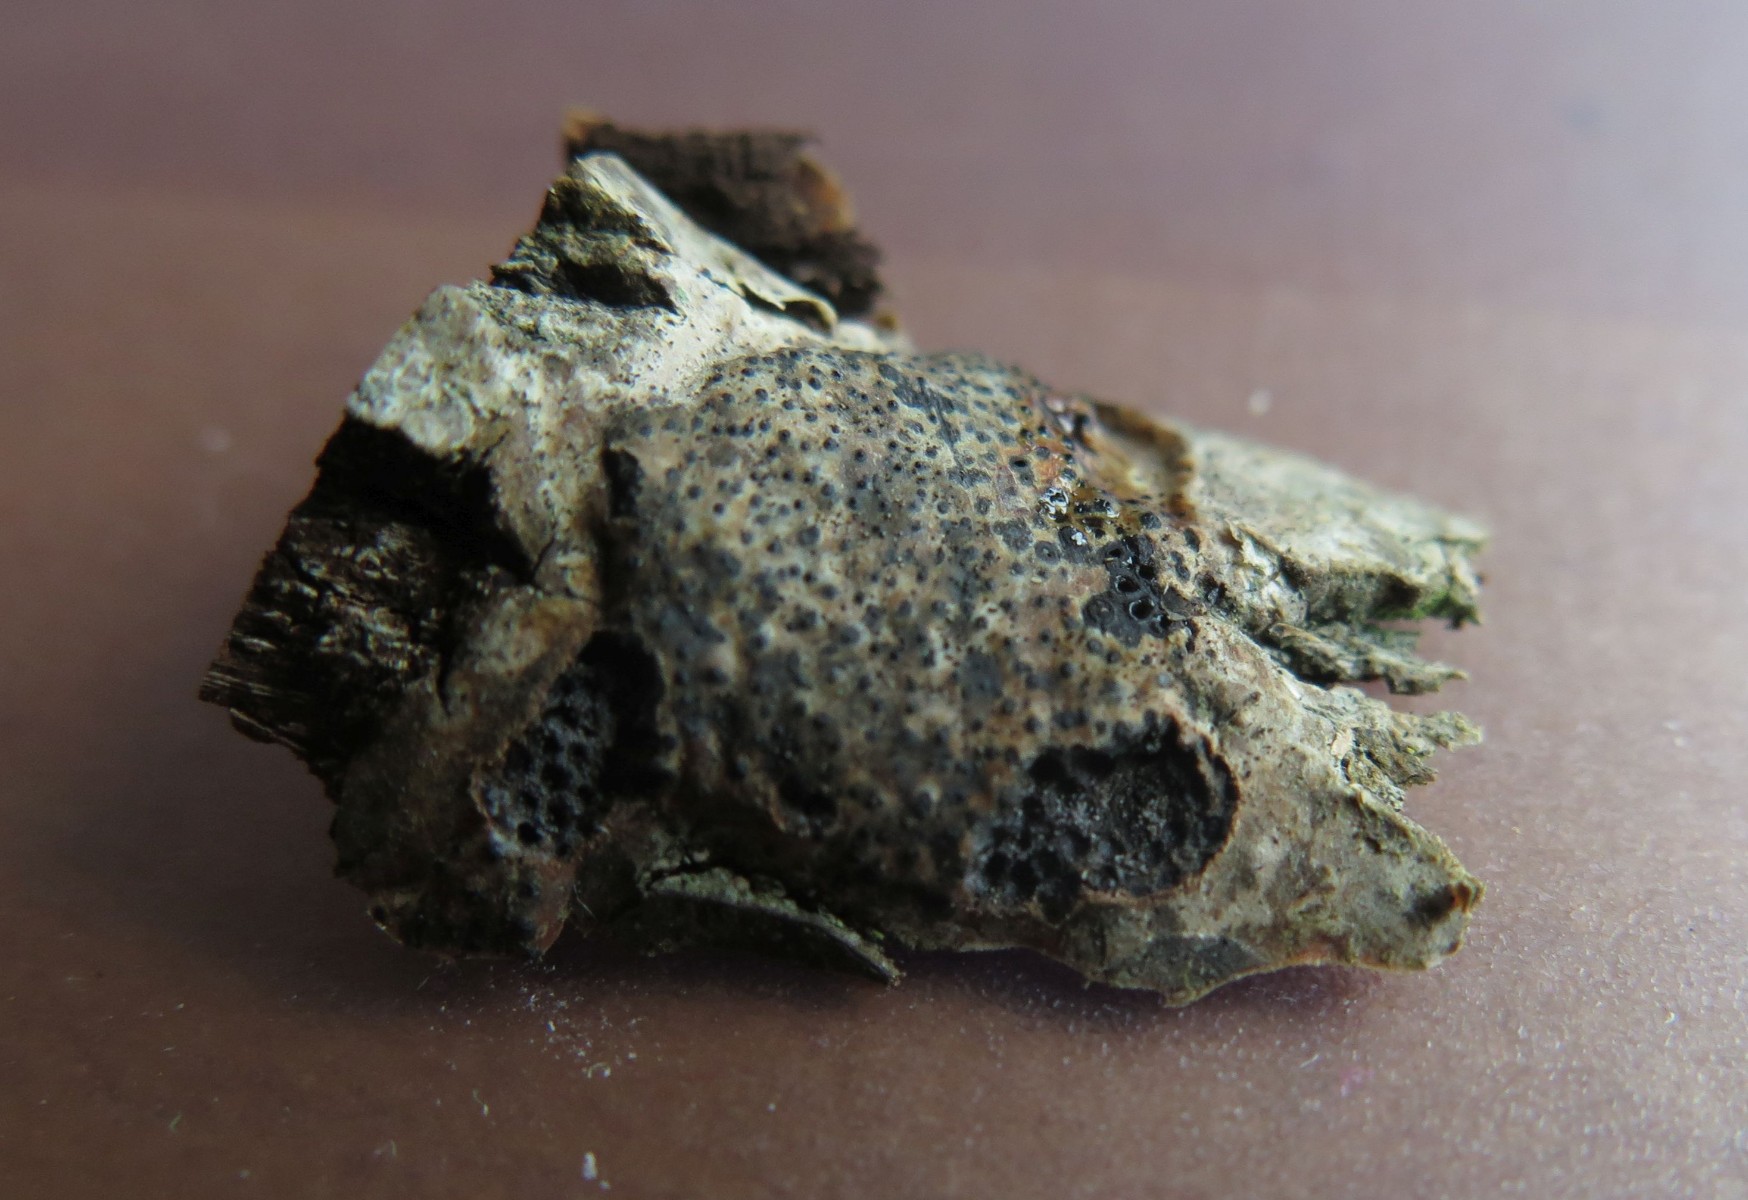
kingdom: Fungi
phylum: Ascomycota
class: Sordariomycetes
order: Diaporthales
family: Valsaceae
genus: Cytospora
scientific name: Cytospora populina
